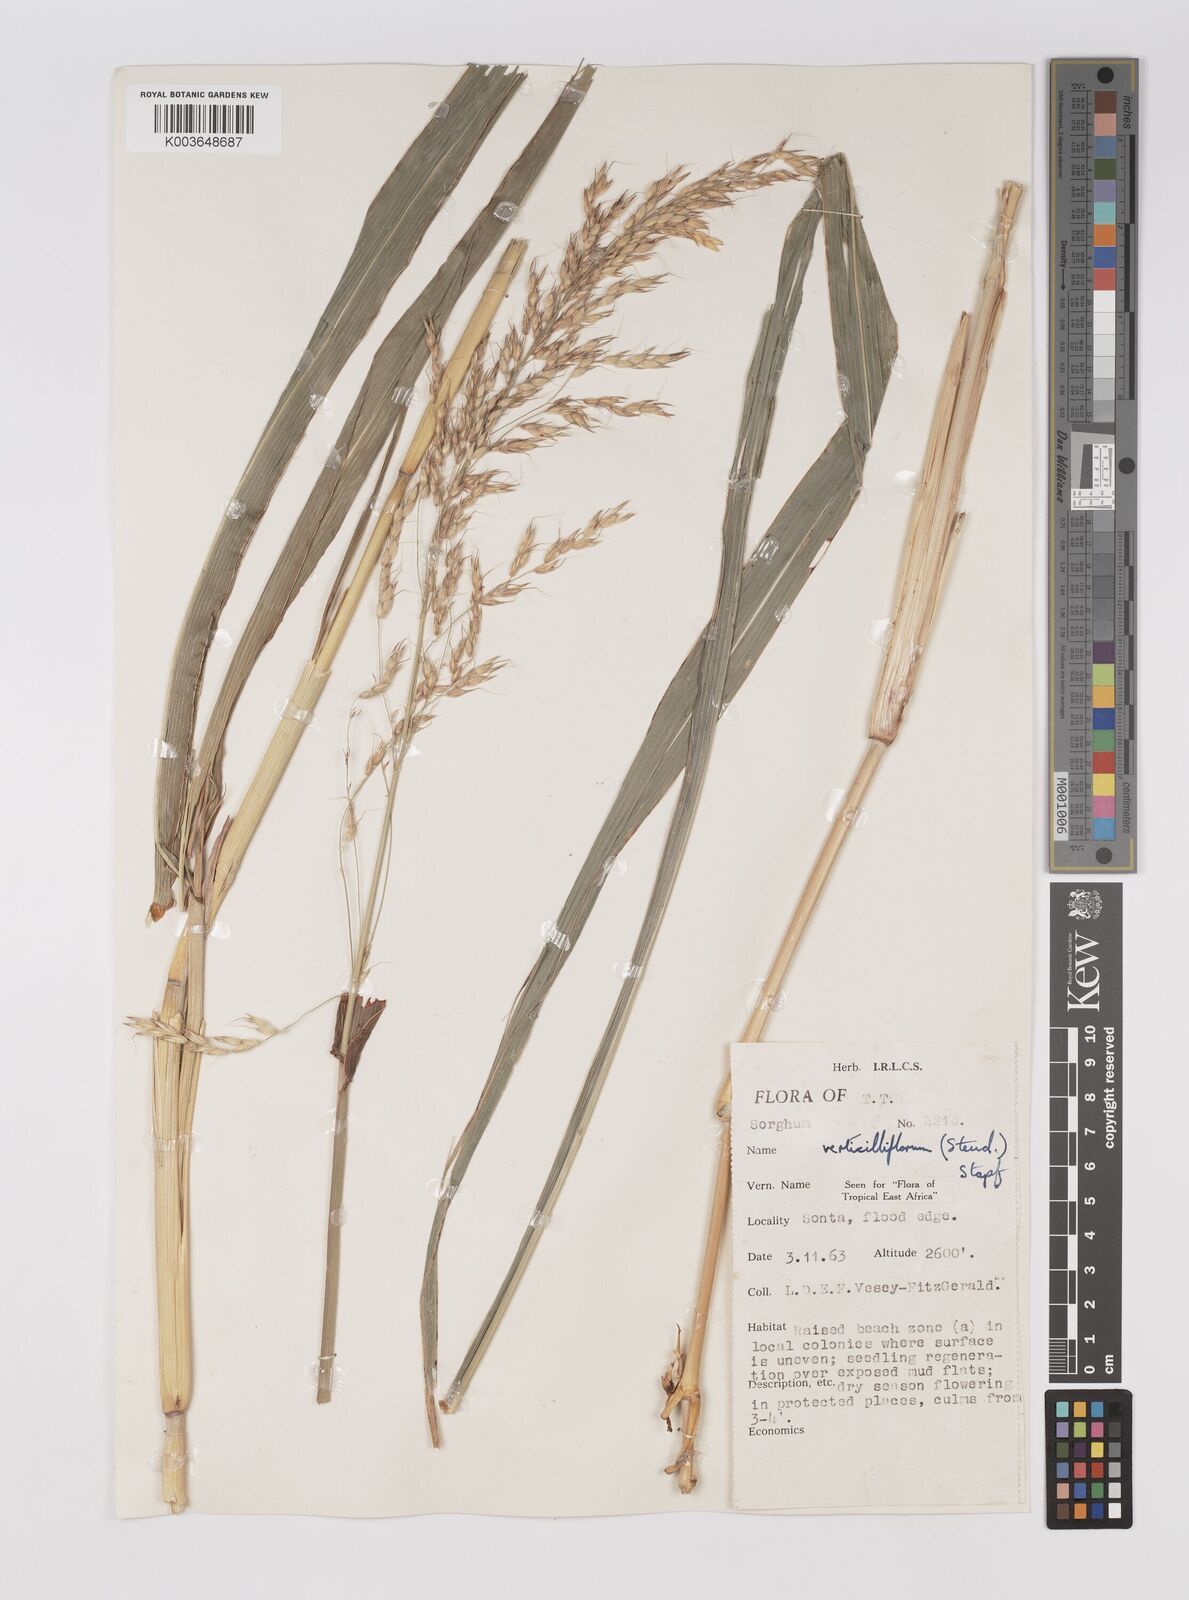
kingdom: Plantae
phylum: Tracheophyta
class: Liliopsida
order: Poales
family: Poaceae
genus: Sorghum
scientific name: Sorghum arundinaceum
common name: Sorghum
